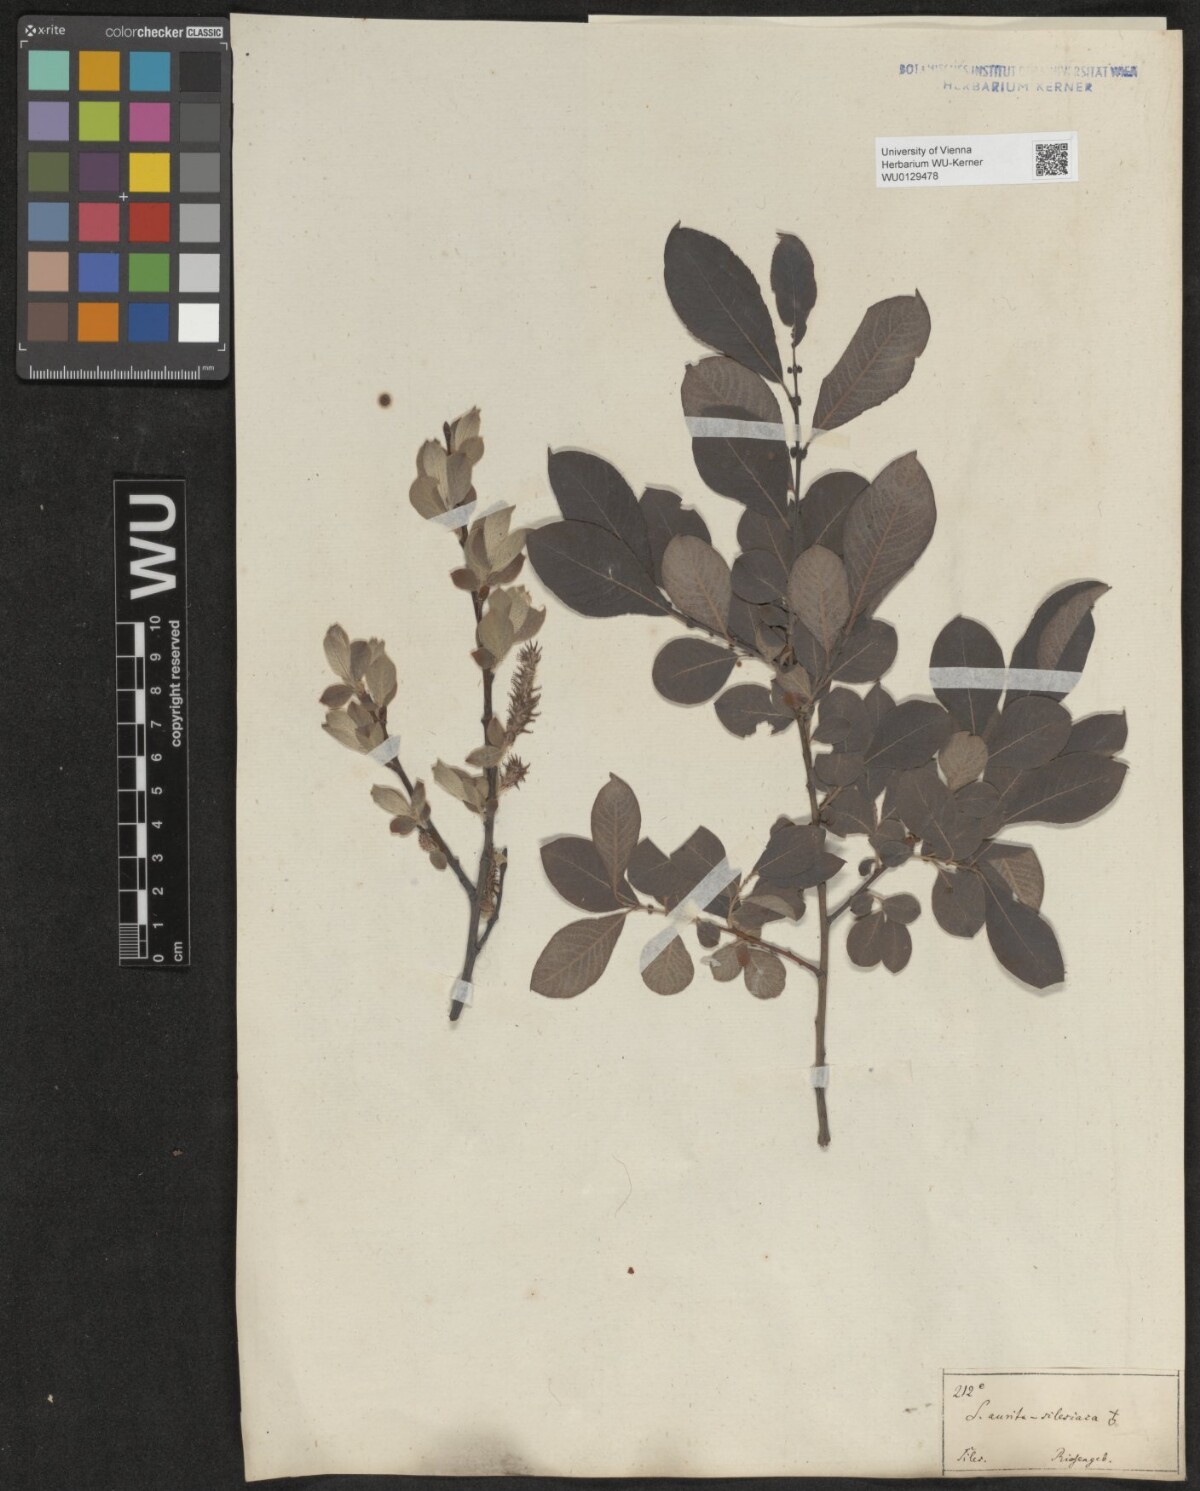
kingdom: Plantae
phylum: Tracheophyta
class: Magnoliopsida
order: Malpighiales
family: Salicaceae
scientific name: Salicaceae
